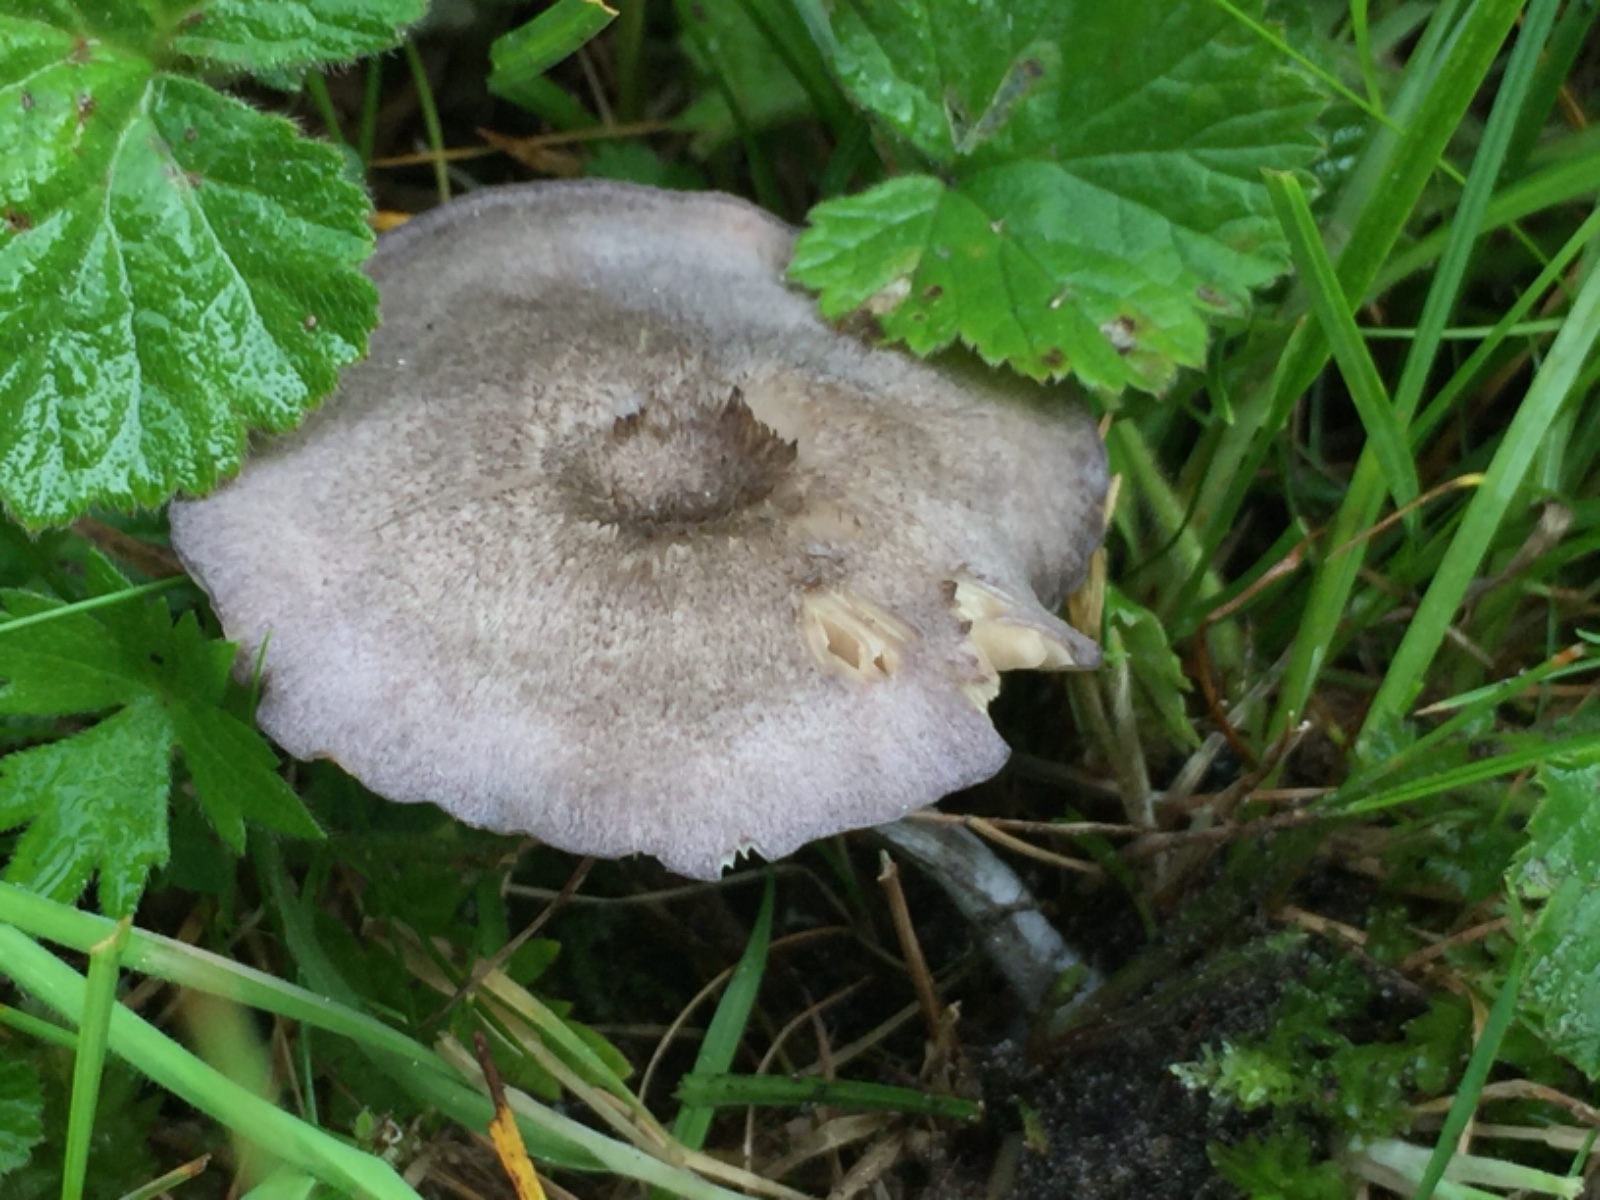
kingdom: Fungi
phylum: Basidiomycota
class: Agaricomycetes
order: Agaricales
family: Entolomataceae
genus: Entoloma
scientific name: Entoloma mougeotii
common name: violetgrå rødblad
